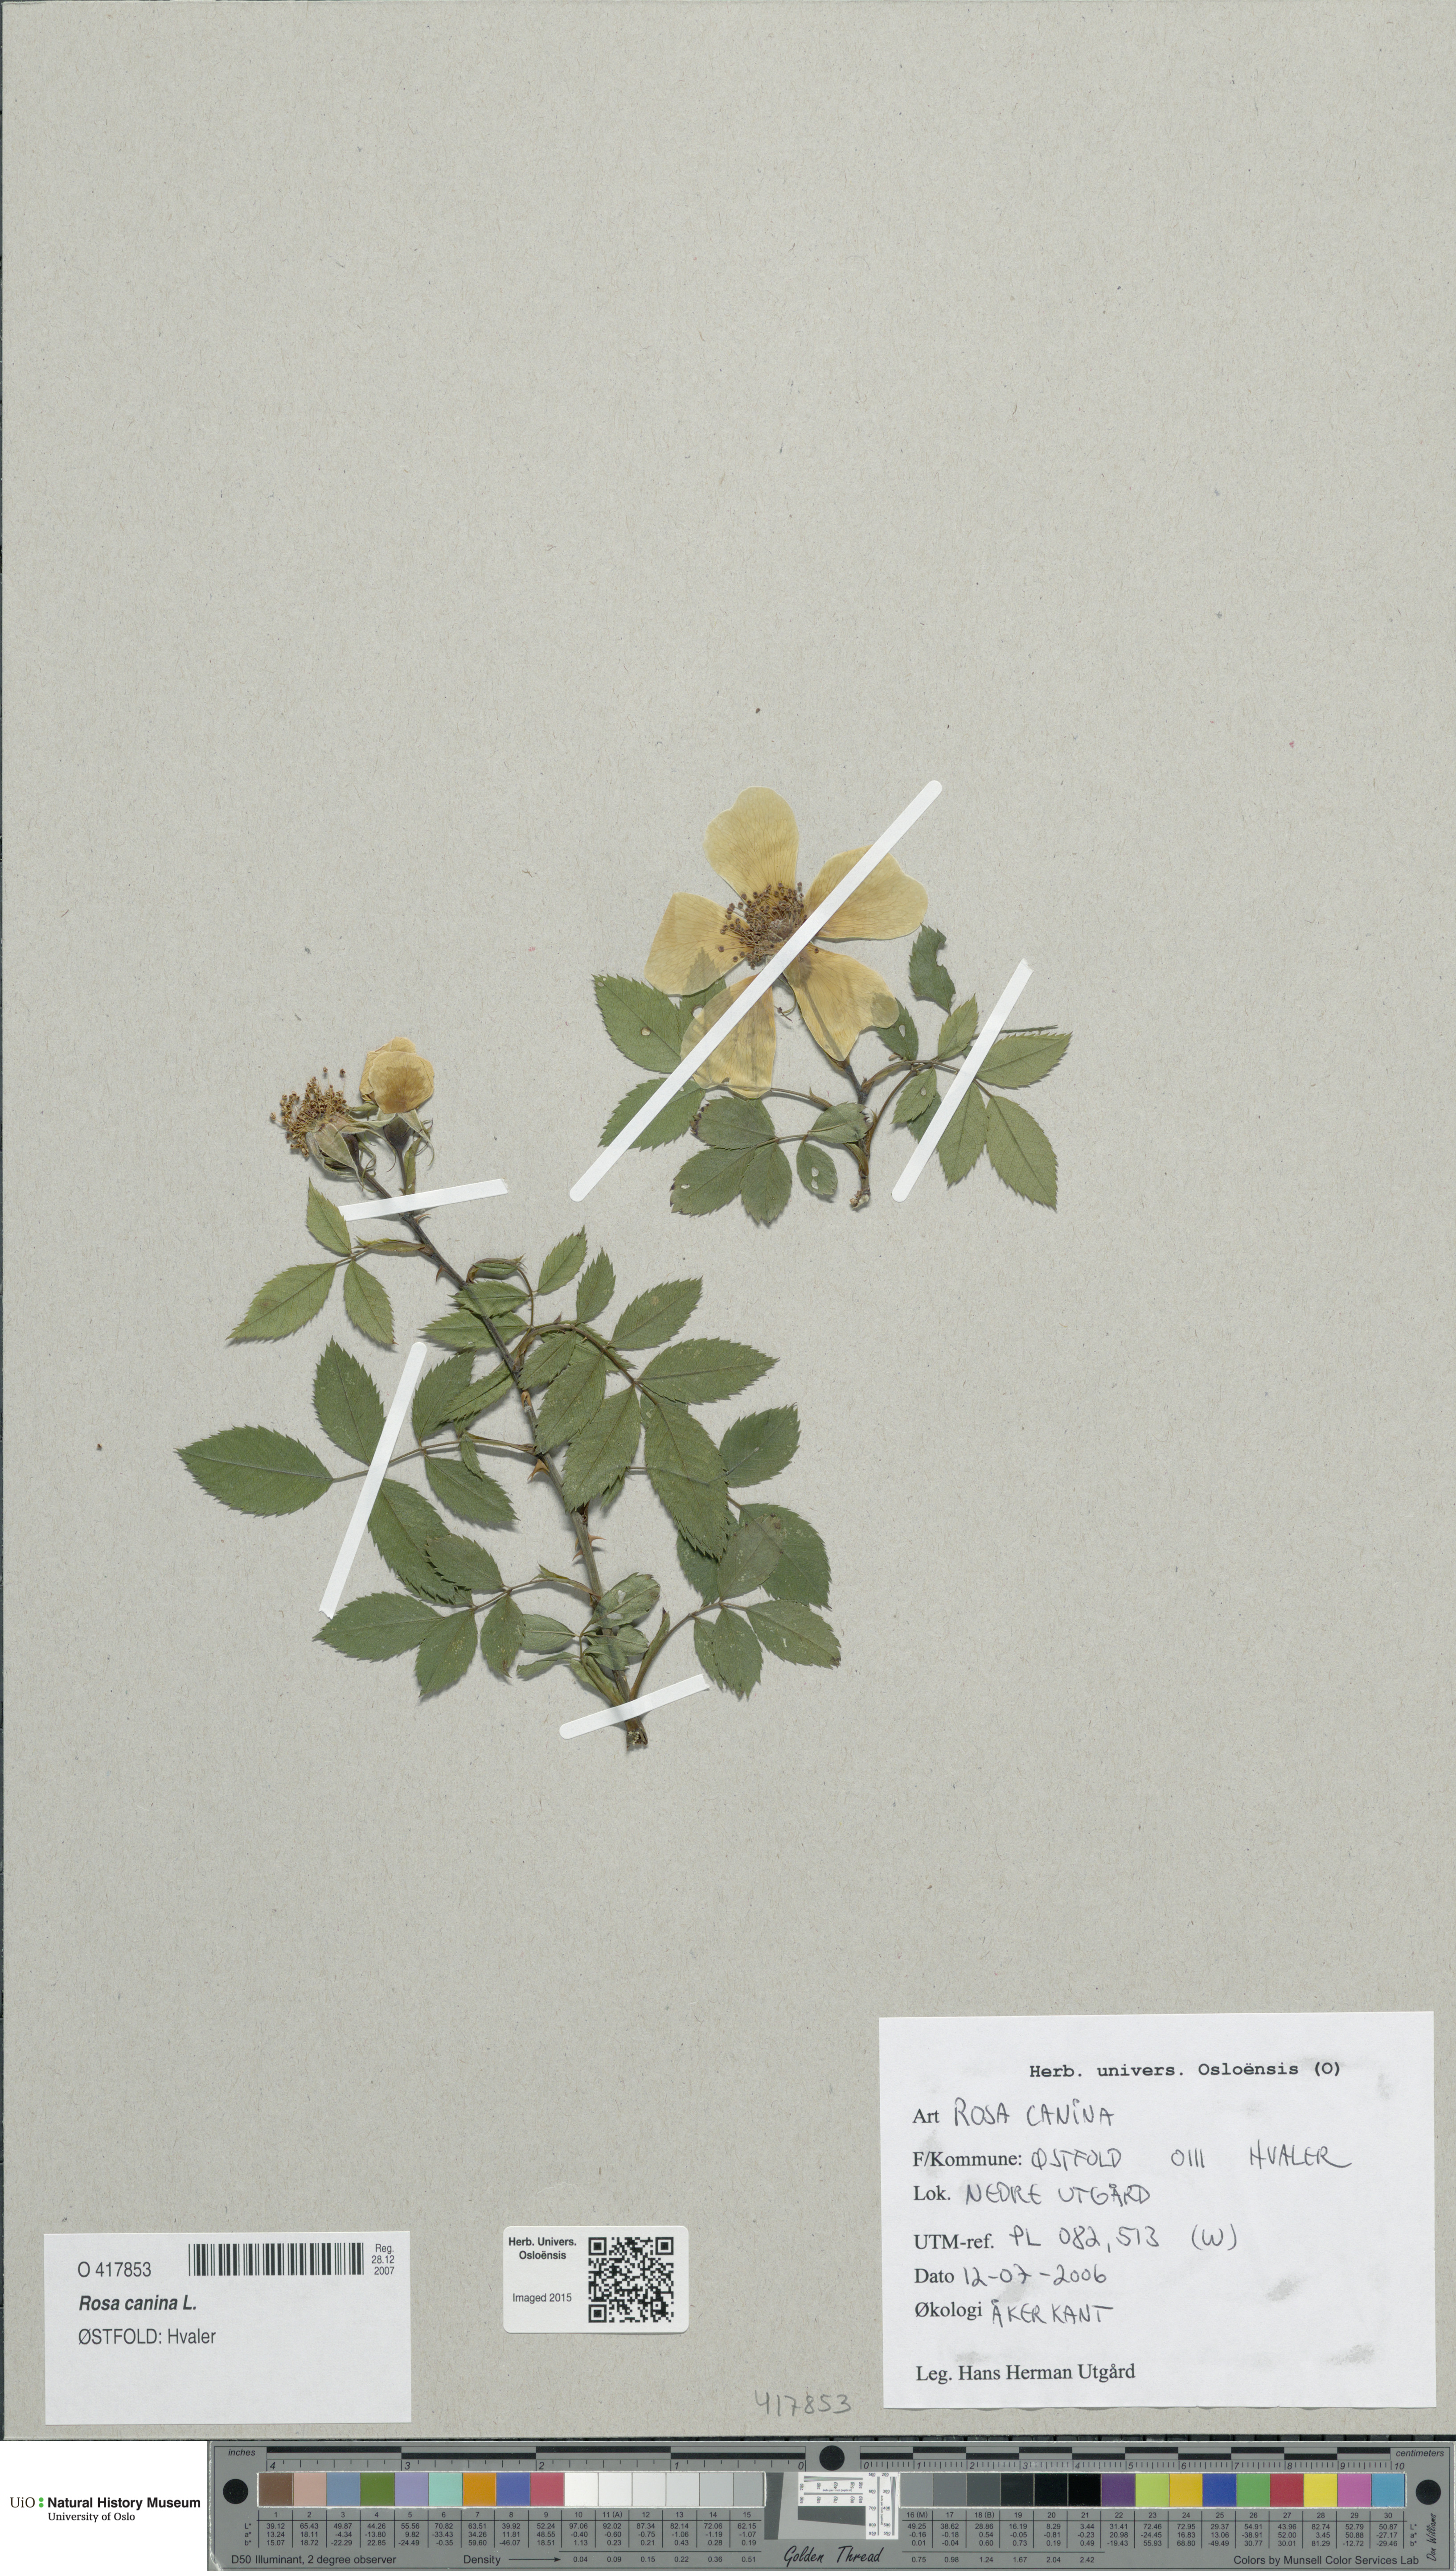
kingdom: Plantae
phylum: Tracheophyta
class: Magnoliopsida
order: Rosales
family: Rosaceae
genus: Rosa
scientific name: Rosa canina
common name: Dog rose
